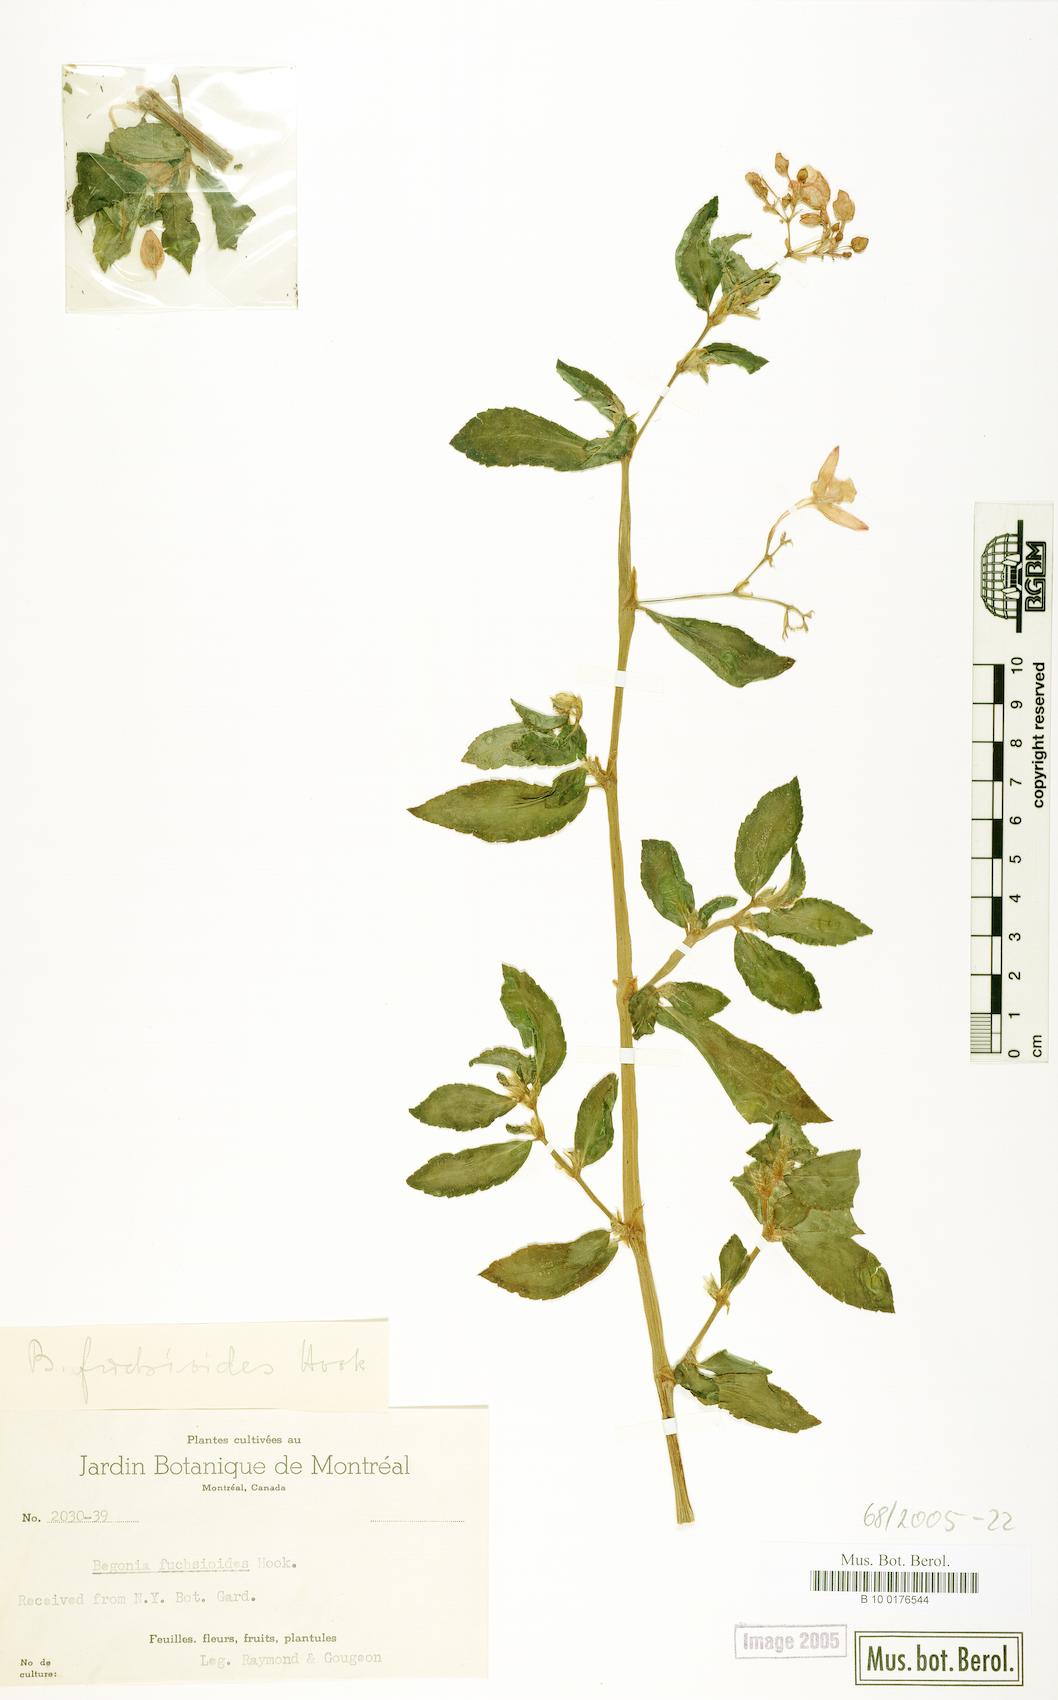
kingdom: Plantae
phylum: Tracheophyta
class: Magnoliopsida
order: Cucurbitales
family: Begoniaceae
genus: Begonia
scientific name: Begonia fuchsioides
